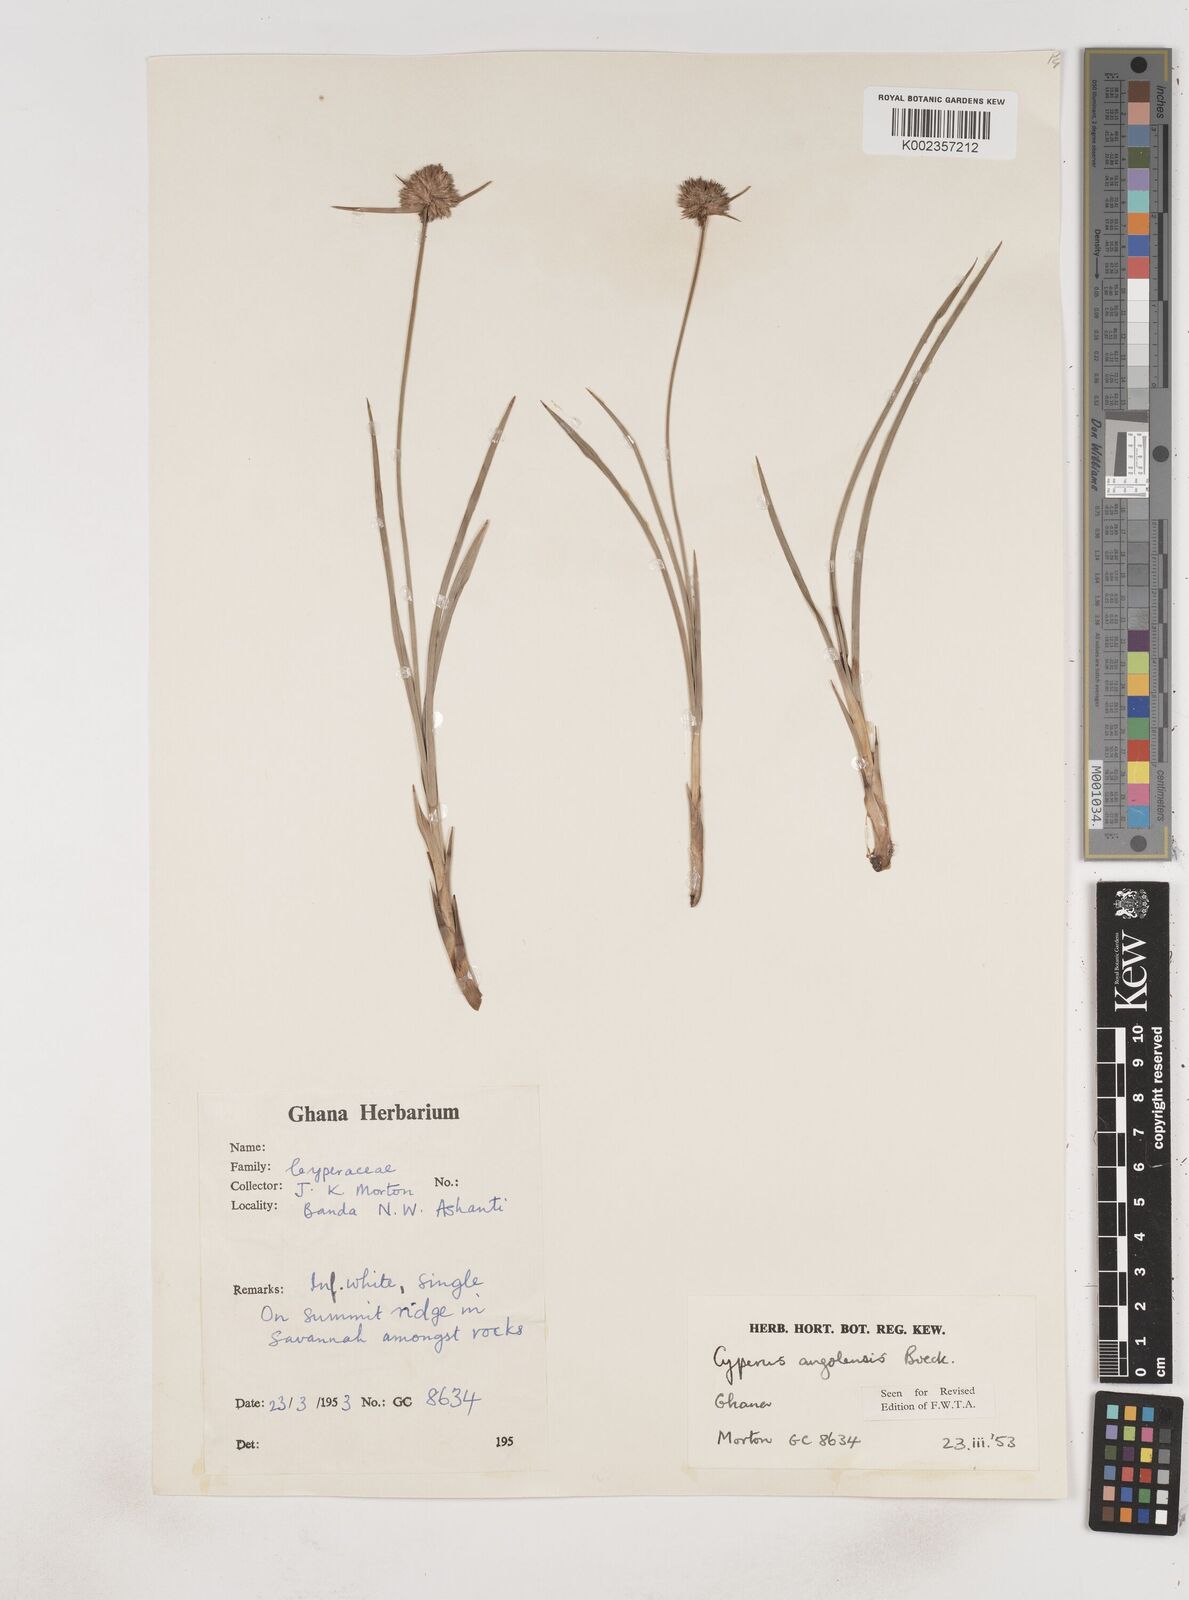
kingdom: Plantae
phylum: Tracheophyta
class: Liliopsida
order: Poales
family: Cyperaceae
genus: Cyperus
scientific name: Cyperus angolensis
